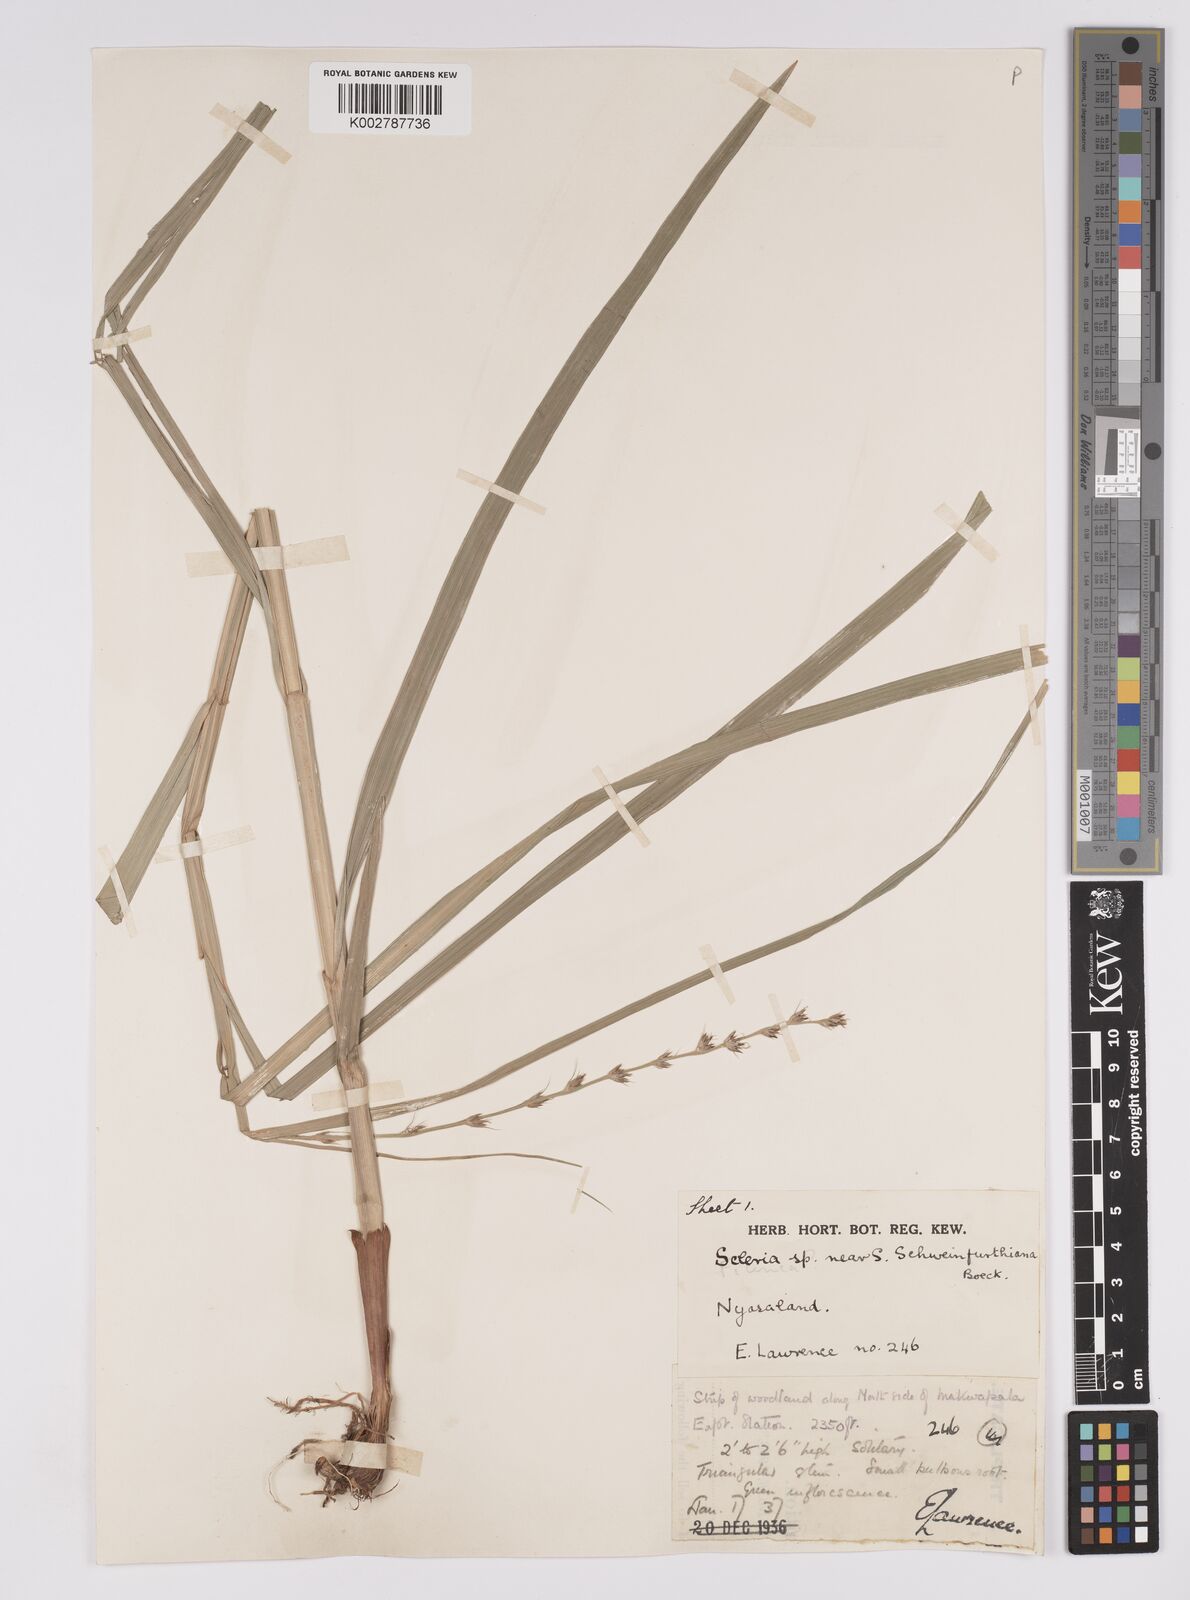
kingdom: Plantae
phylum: Tracheophyta
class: Liliopsida
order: Poales
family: Cyperaceae
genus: Scleria
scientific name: Scleria bulbifera
